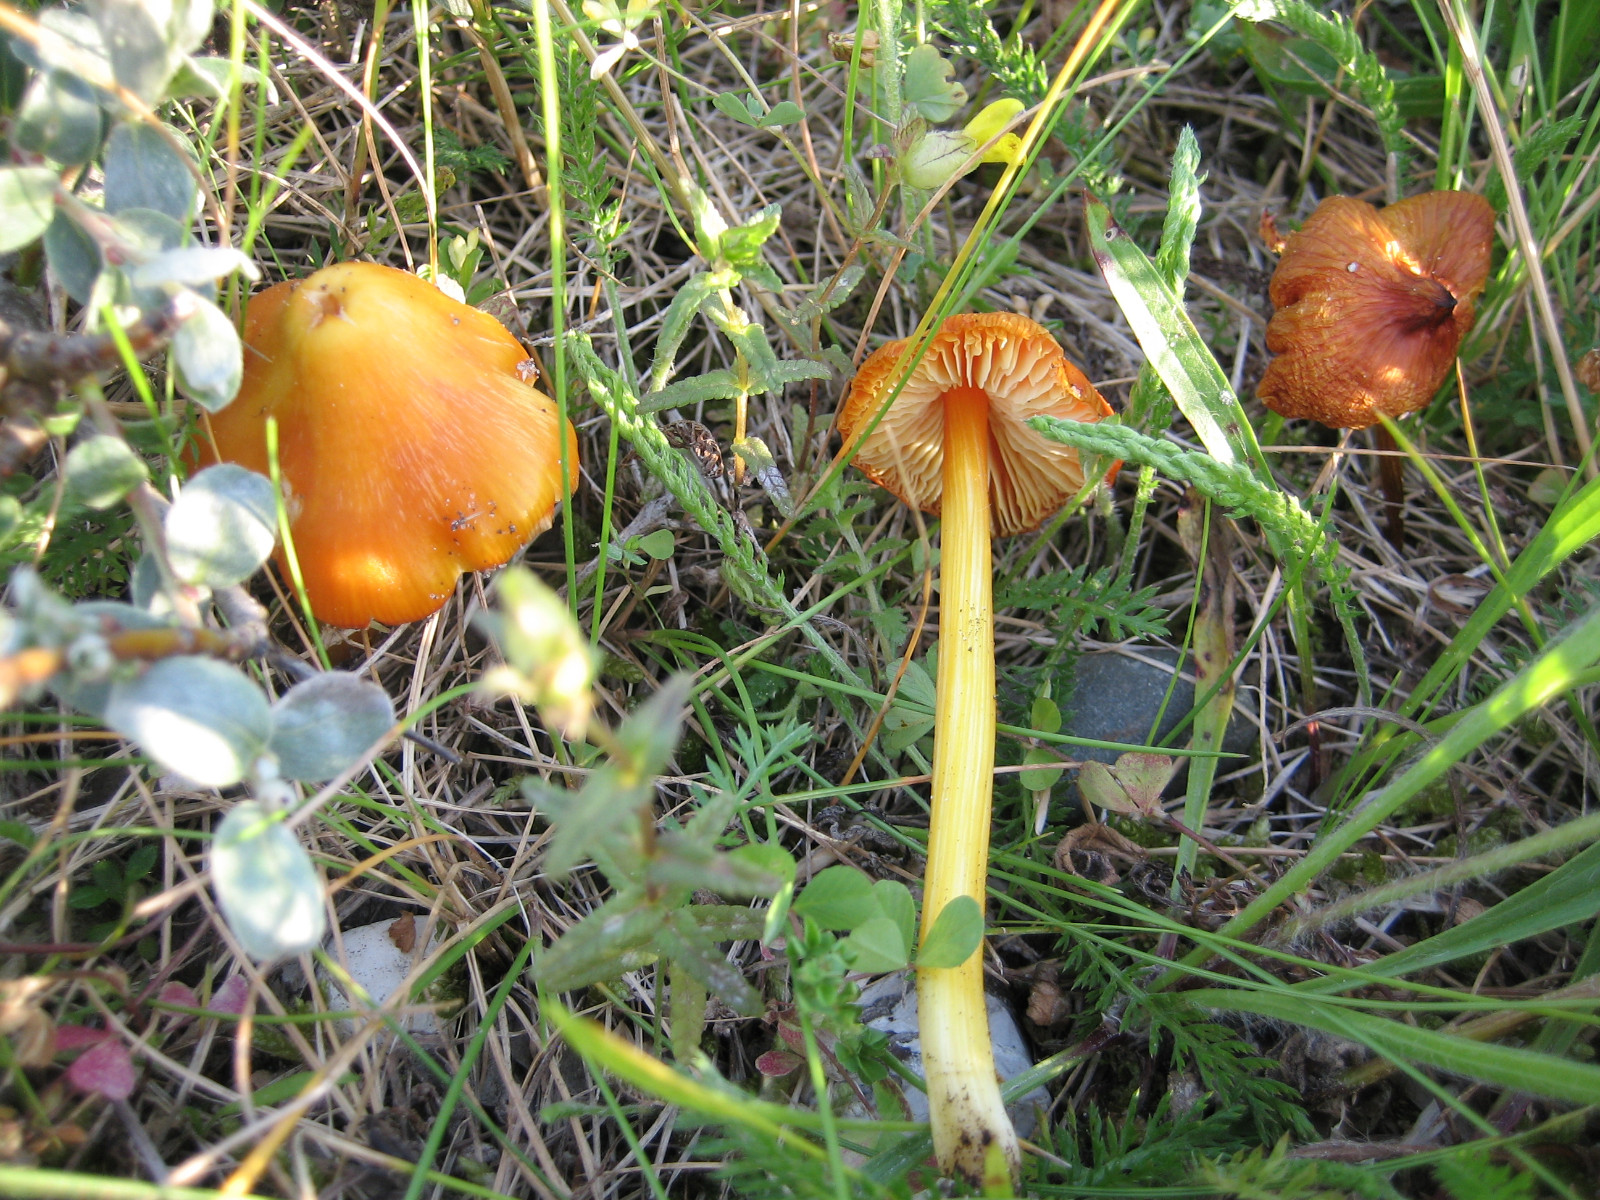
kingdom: Fungi
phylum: Basidiomycota
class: Agaricomycetes
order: Agaricales
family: Hygrophoraceae
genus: Hygrocybe
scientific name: Hygrocybe
